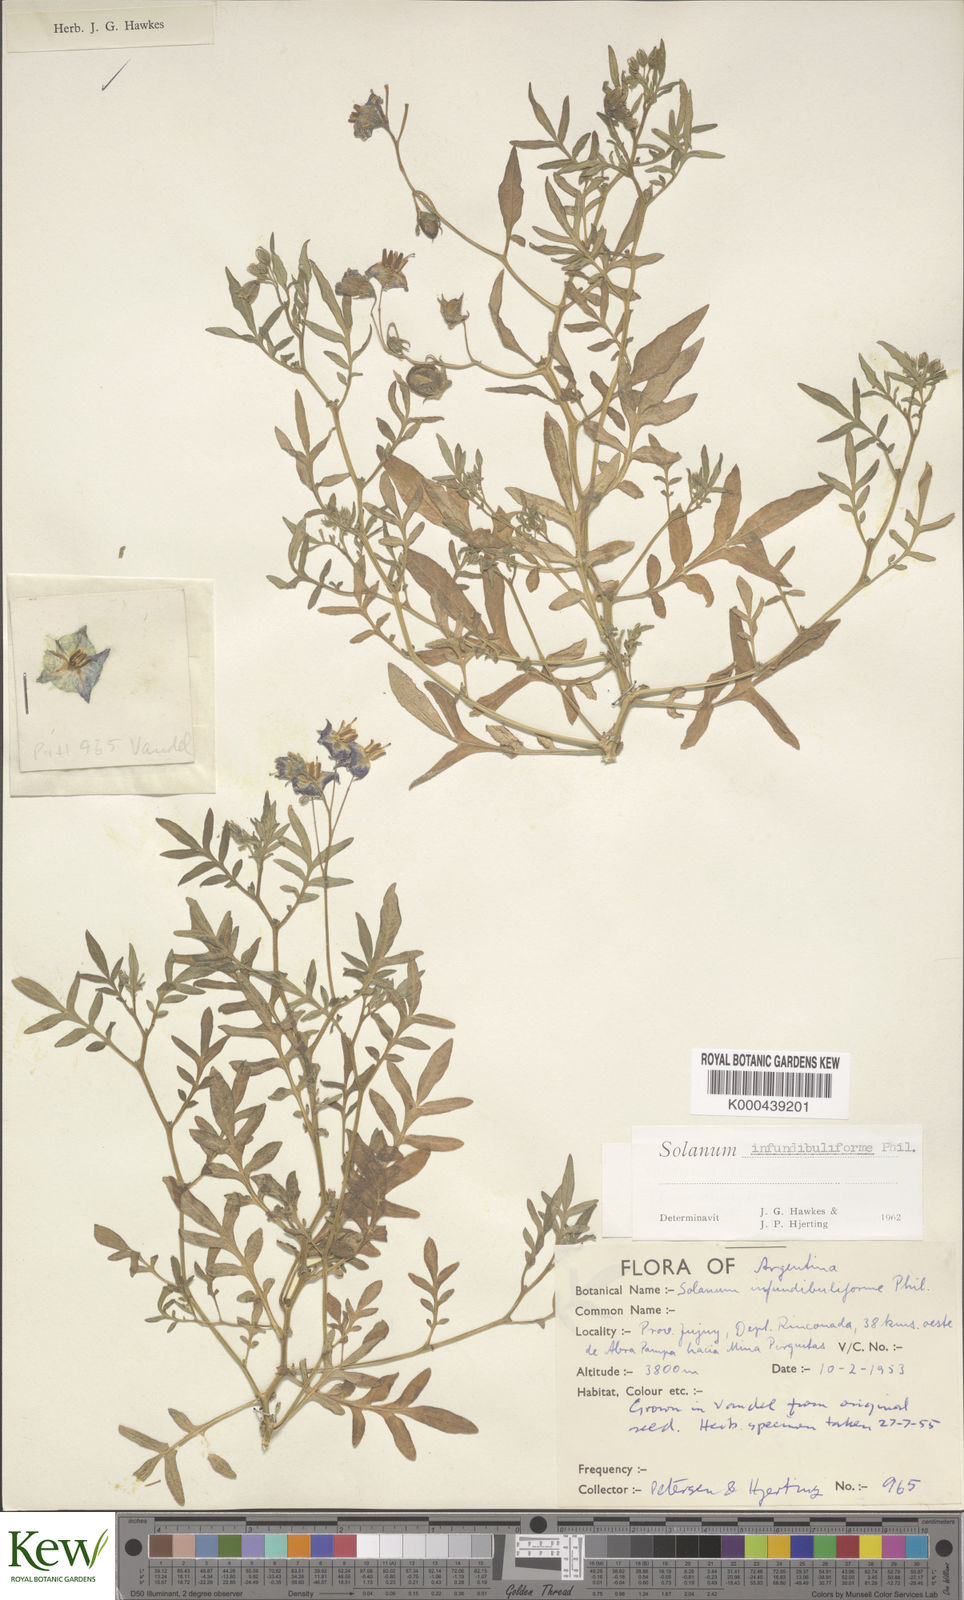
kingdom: Plantae
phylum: Tracheophyta
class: Magnoliopsida
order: Solanales
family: Solanaceae
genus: Solanum
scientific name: Solanum infundibuliforme
